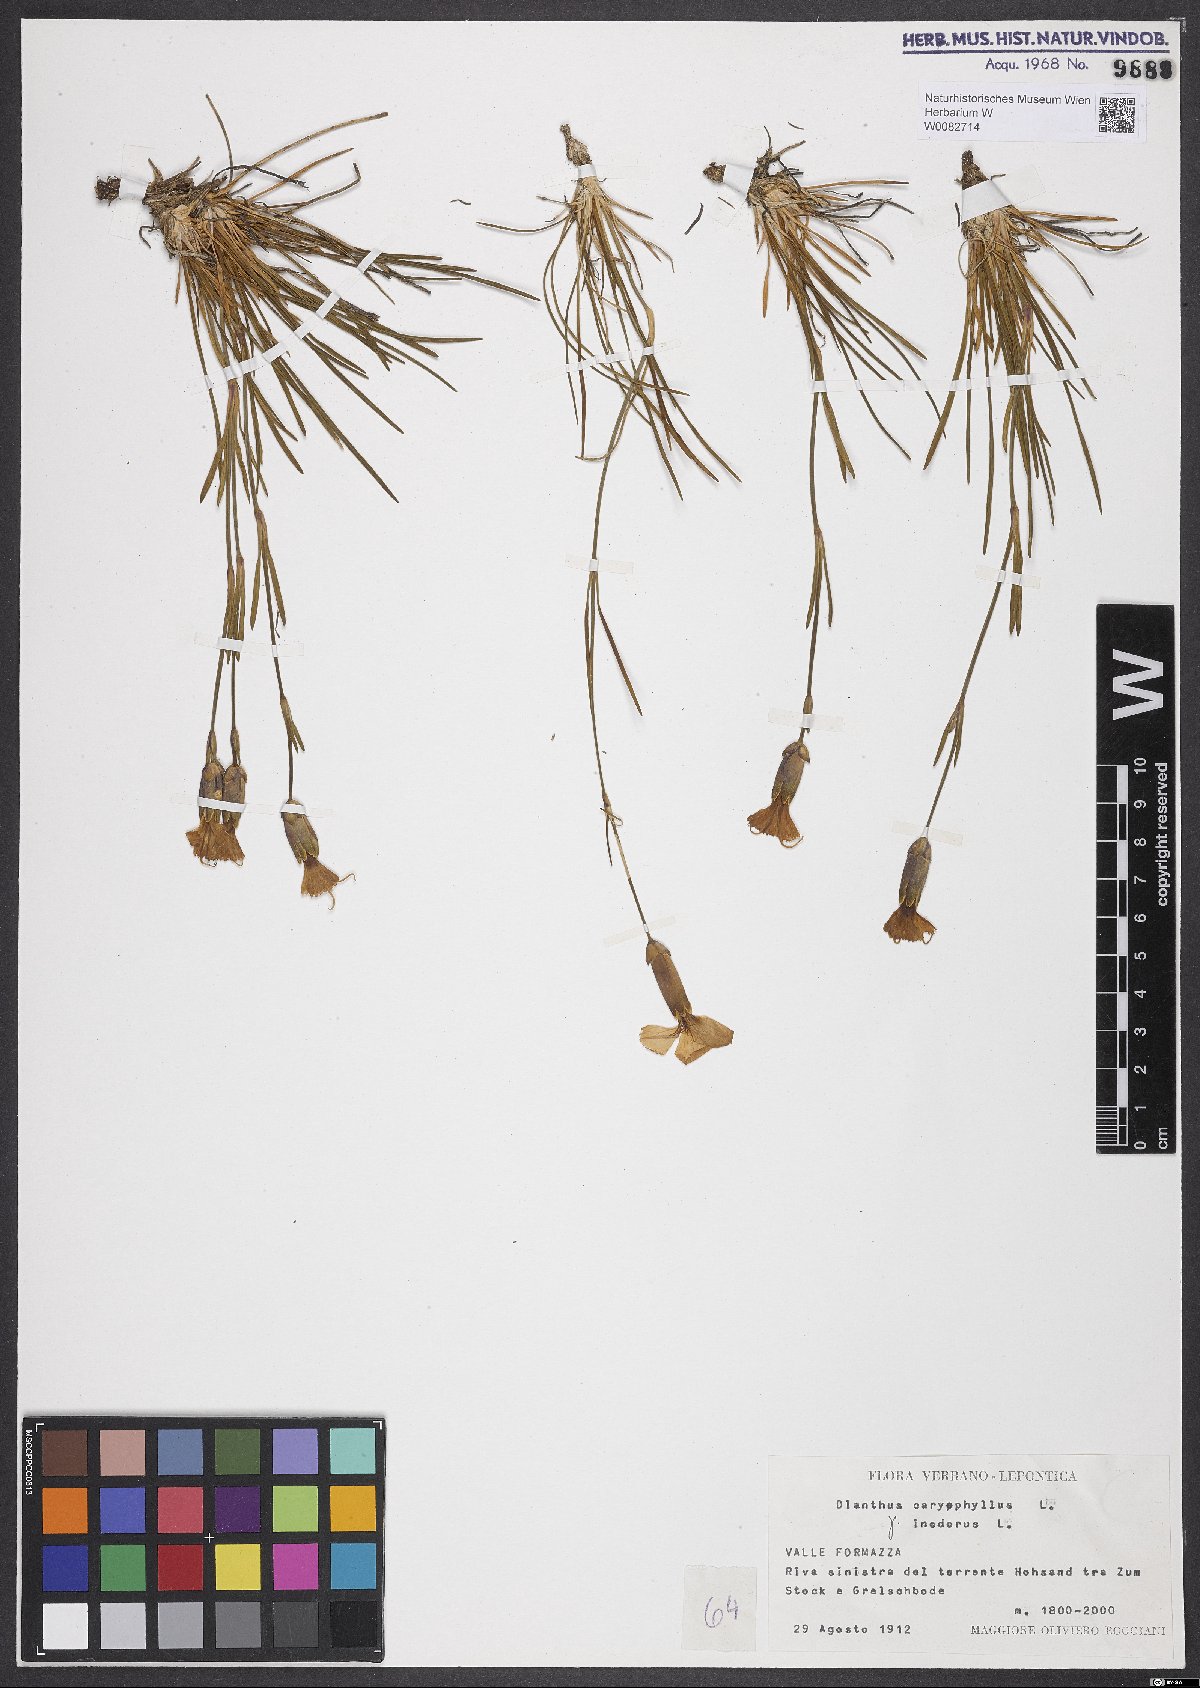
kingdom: Plantae
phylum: Tracheophyta
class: Magnoliopsida
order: Caryophyllales
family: Caryophyllaceae
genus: Dianthus
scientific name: Dianthus caryophyllus
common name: Clove pink
